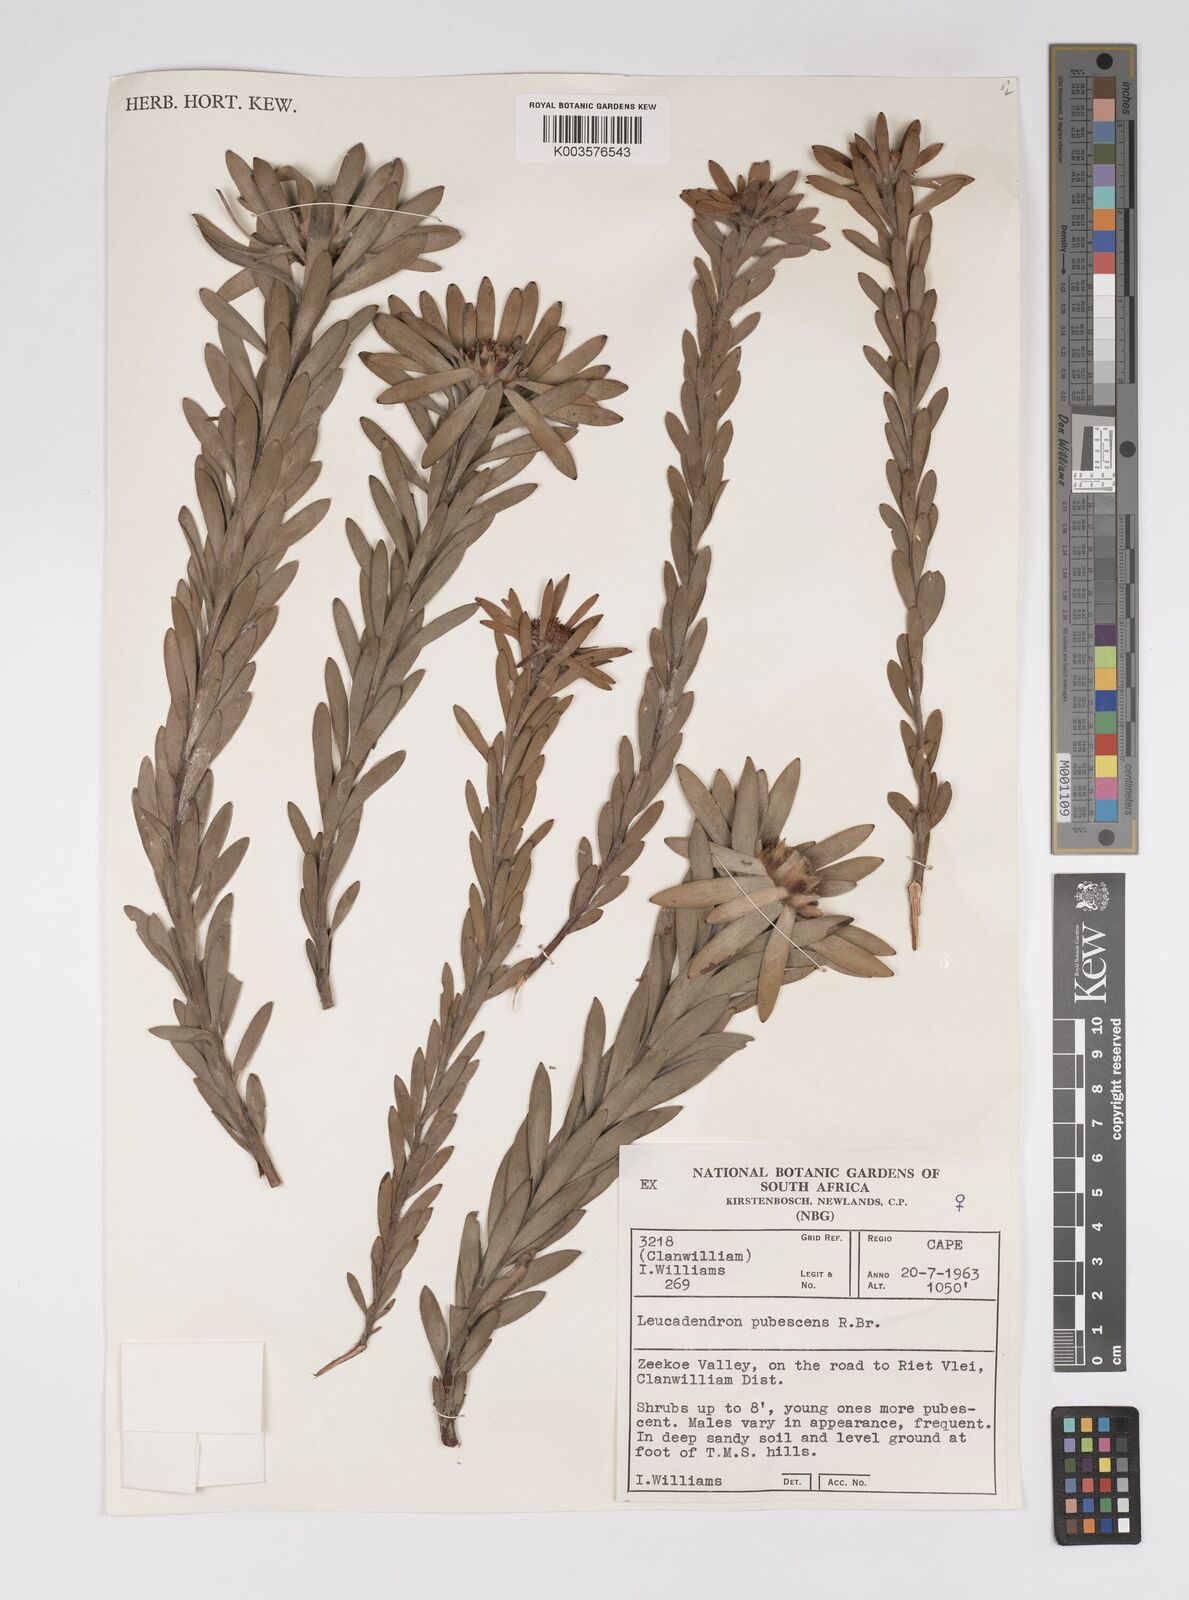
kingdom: Plantae
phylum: Tracheophyta
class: Magnoliopsida
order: Proteales
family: Proteaceae
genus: Leucadendron
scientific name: Leucadendron pubescens
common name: Grey conebush
